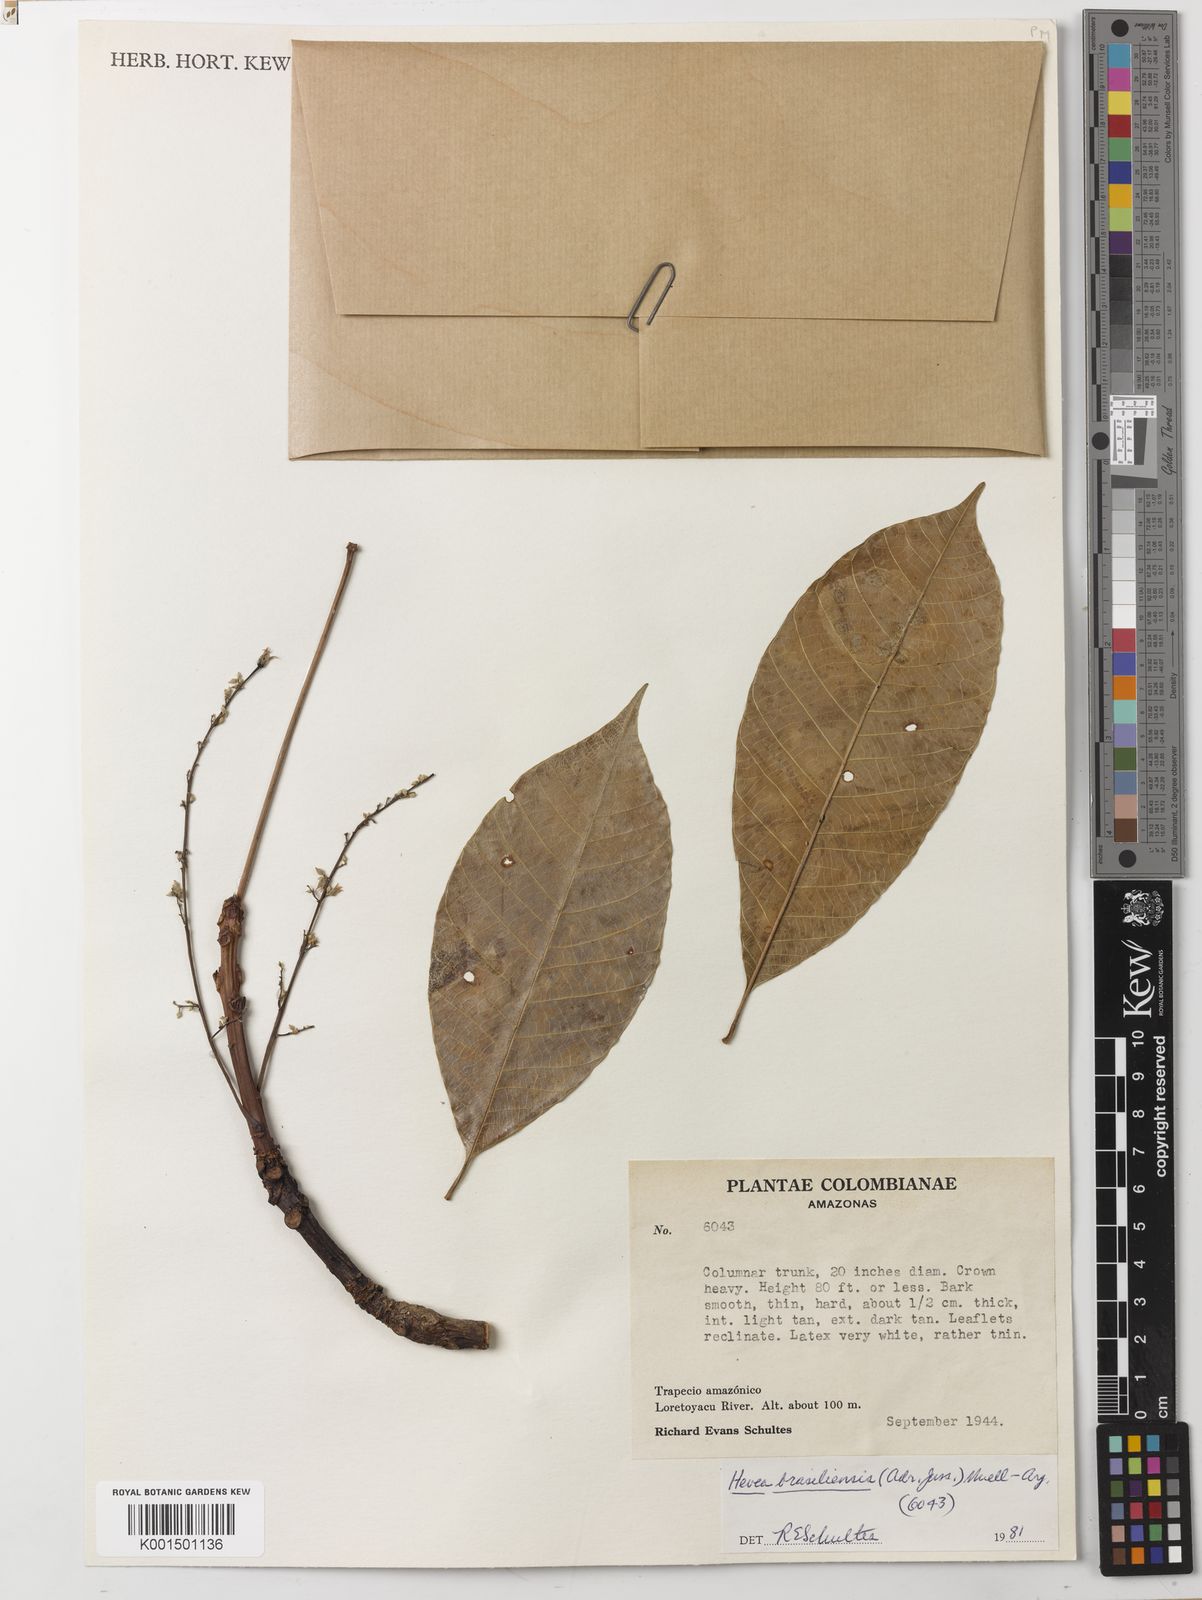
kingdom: Plantae
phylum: Tracheophyta
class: Magnoliopsida
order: Malpighiales
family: Euphorbiaceae
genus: Hevea
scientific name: Hevea brasiliensis
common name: Natural rubber
